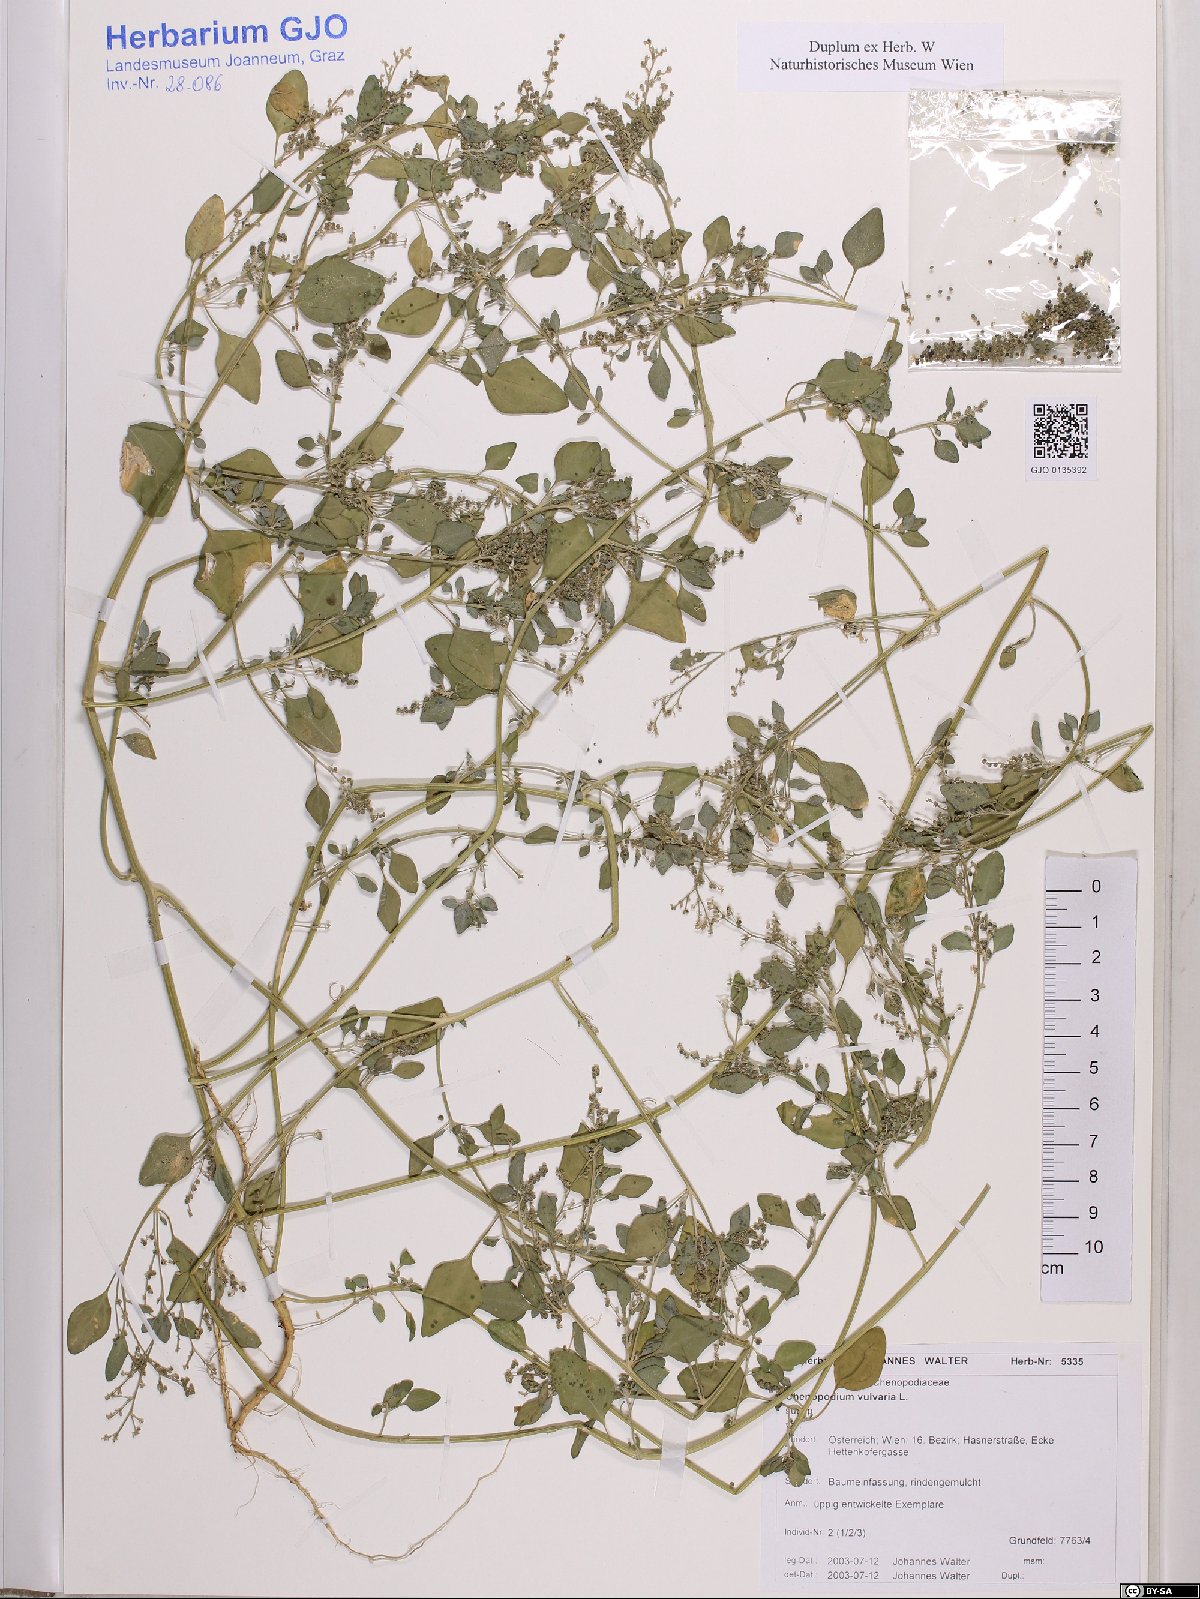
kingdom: Plantae
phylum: Tracheophyta
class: Magnoliopsida
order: Caryophyllales
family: Amaranthaceae
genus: Chenopodium
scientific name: Chenopodium vulvaria
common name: Stinking goosefoot
